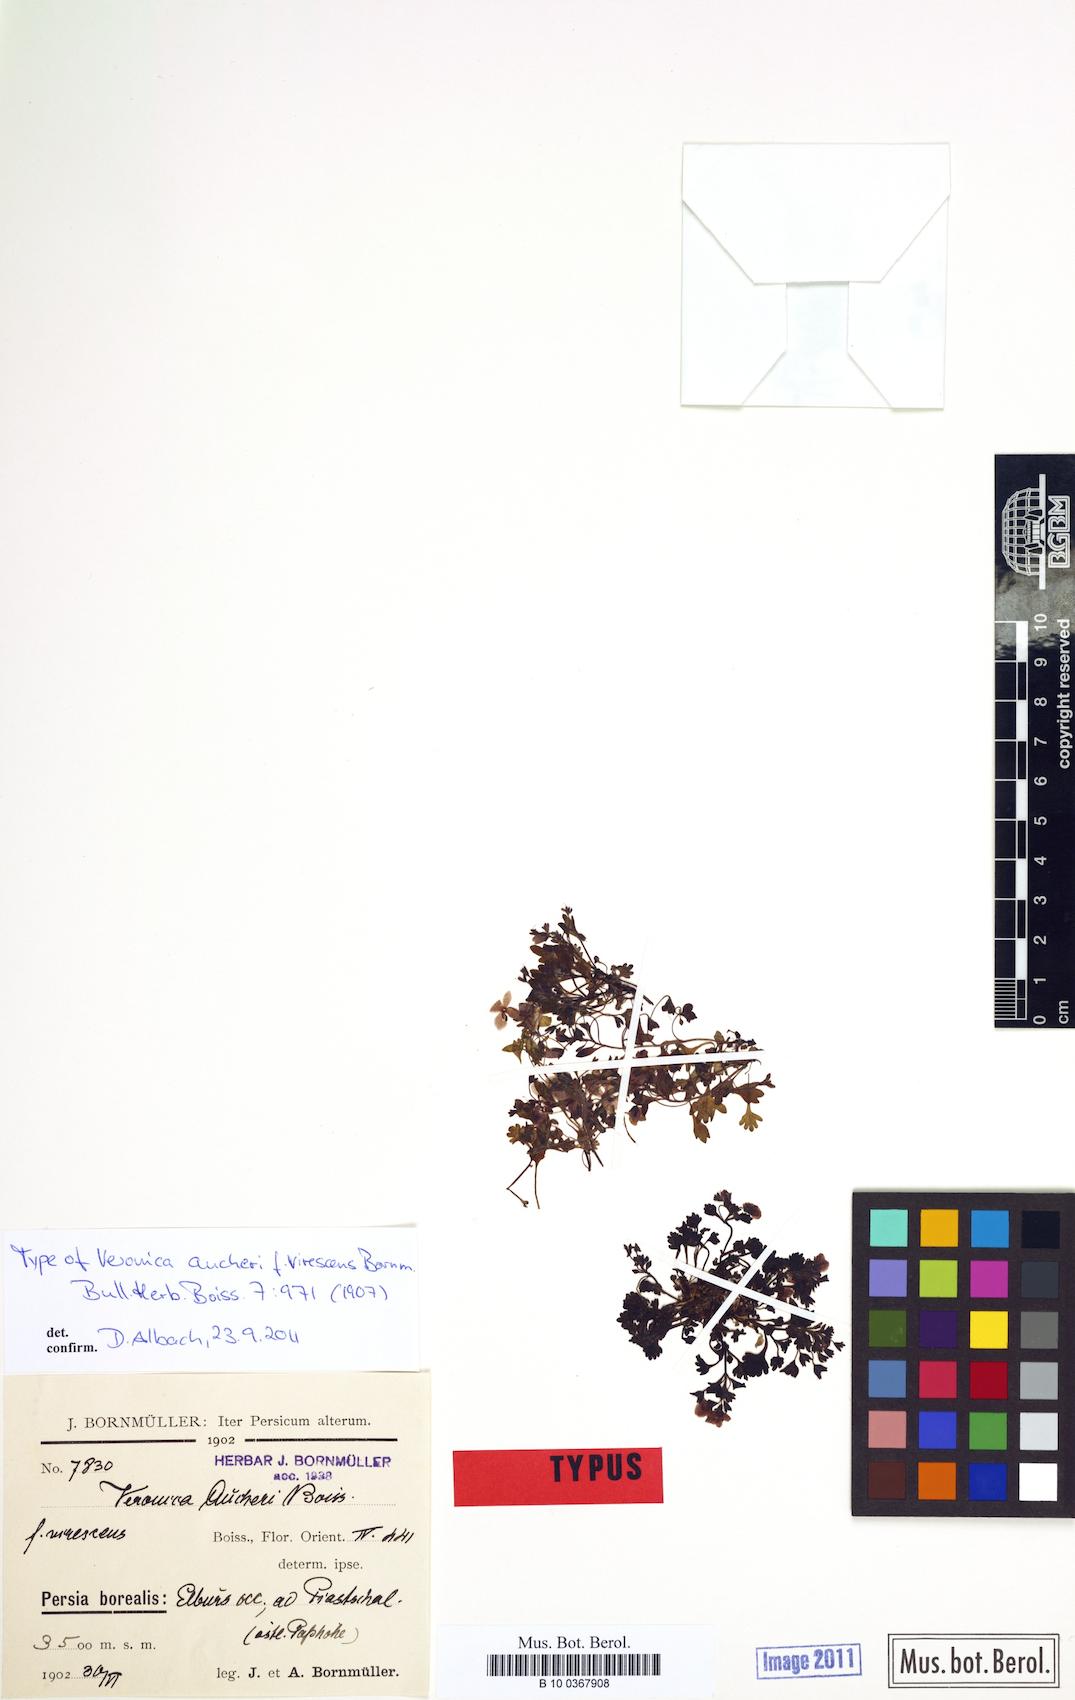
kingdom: Plantae
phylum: Tracheophyta
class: Magnoliopsida
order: Lamiales
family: Plantaginaceae
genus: Veronica
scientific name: Veronica aucheri
